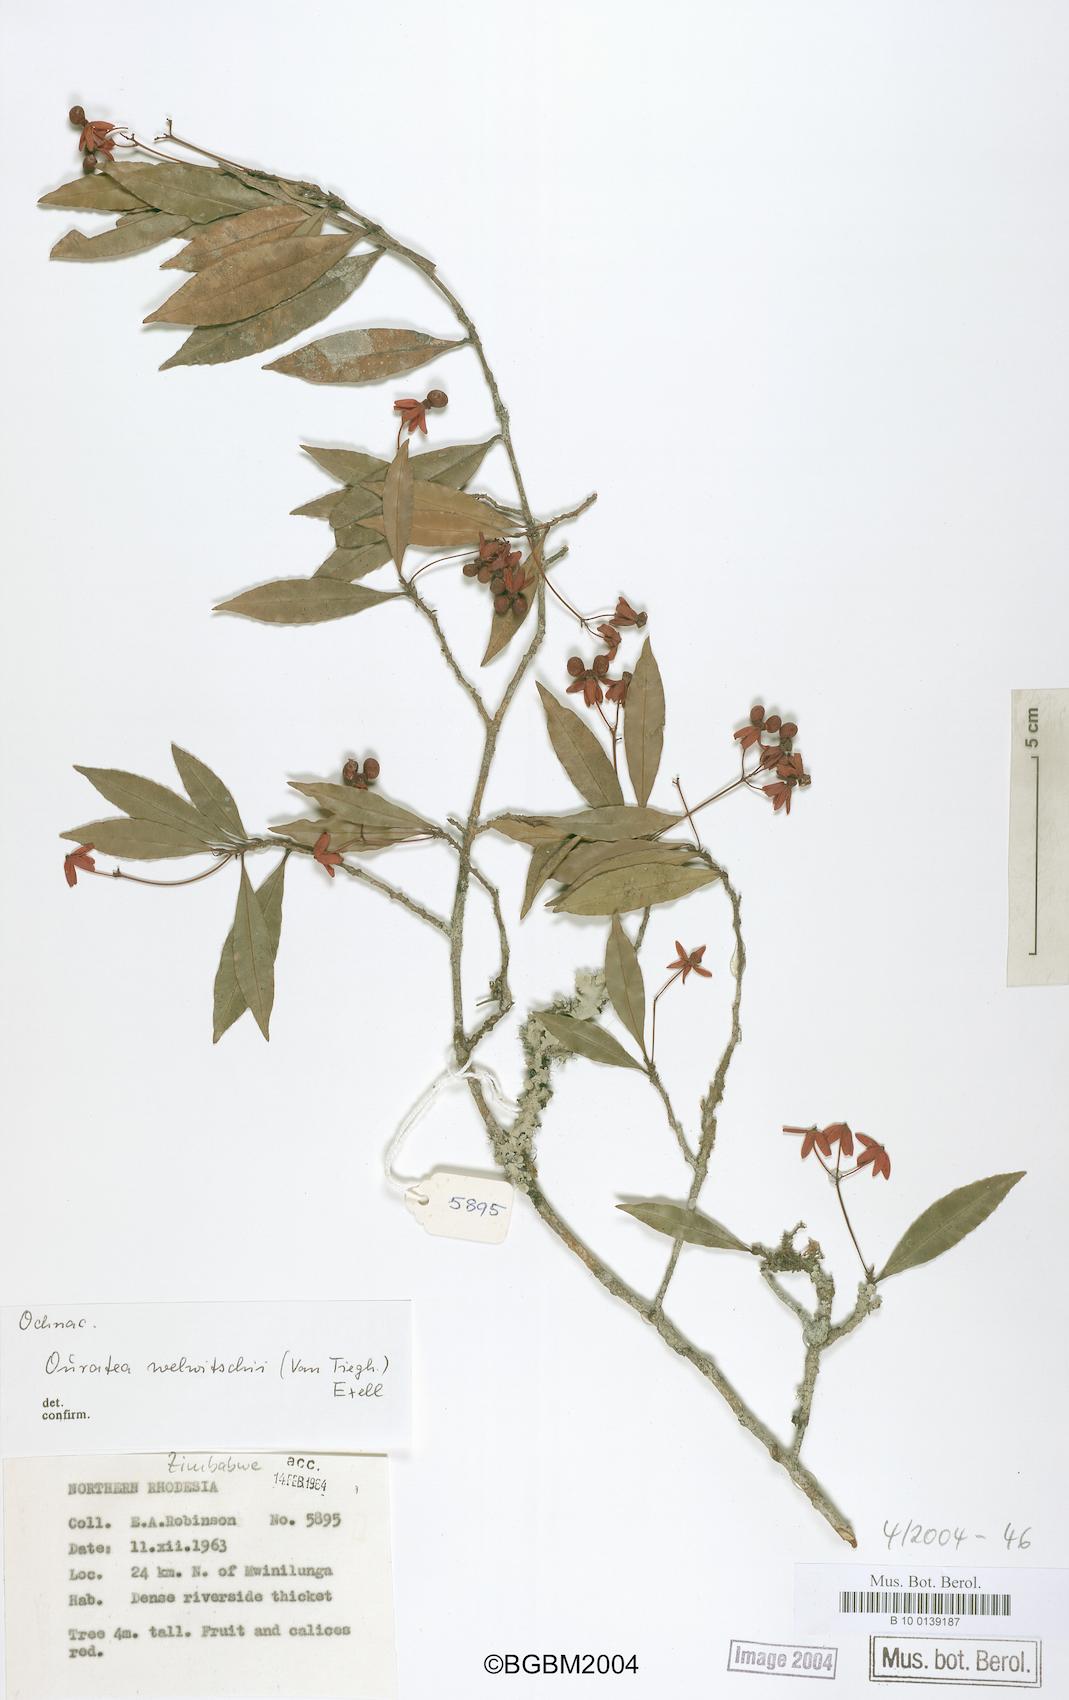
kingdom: Plantae
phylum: Tracheophyta
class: Magnoliopsida
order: Malpighiales
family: Ochnaceae
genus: Rhabdophyllum
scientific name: Rhabdophyllum welwitschii
